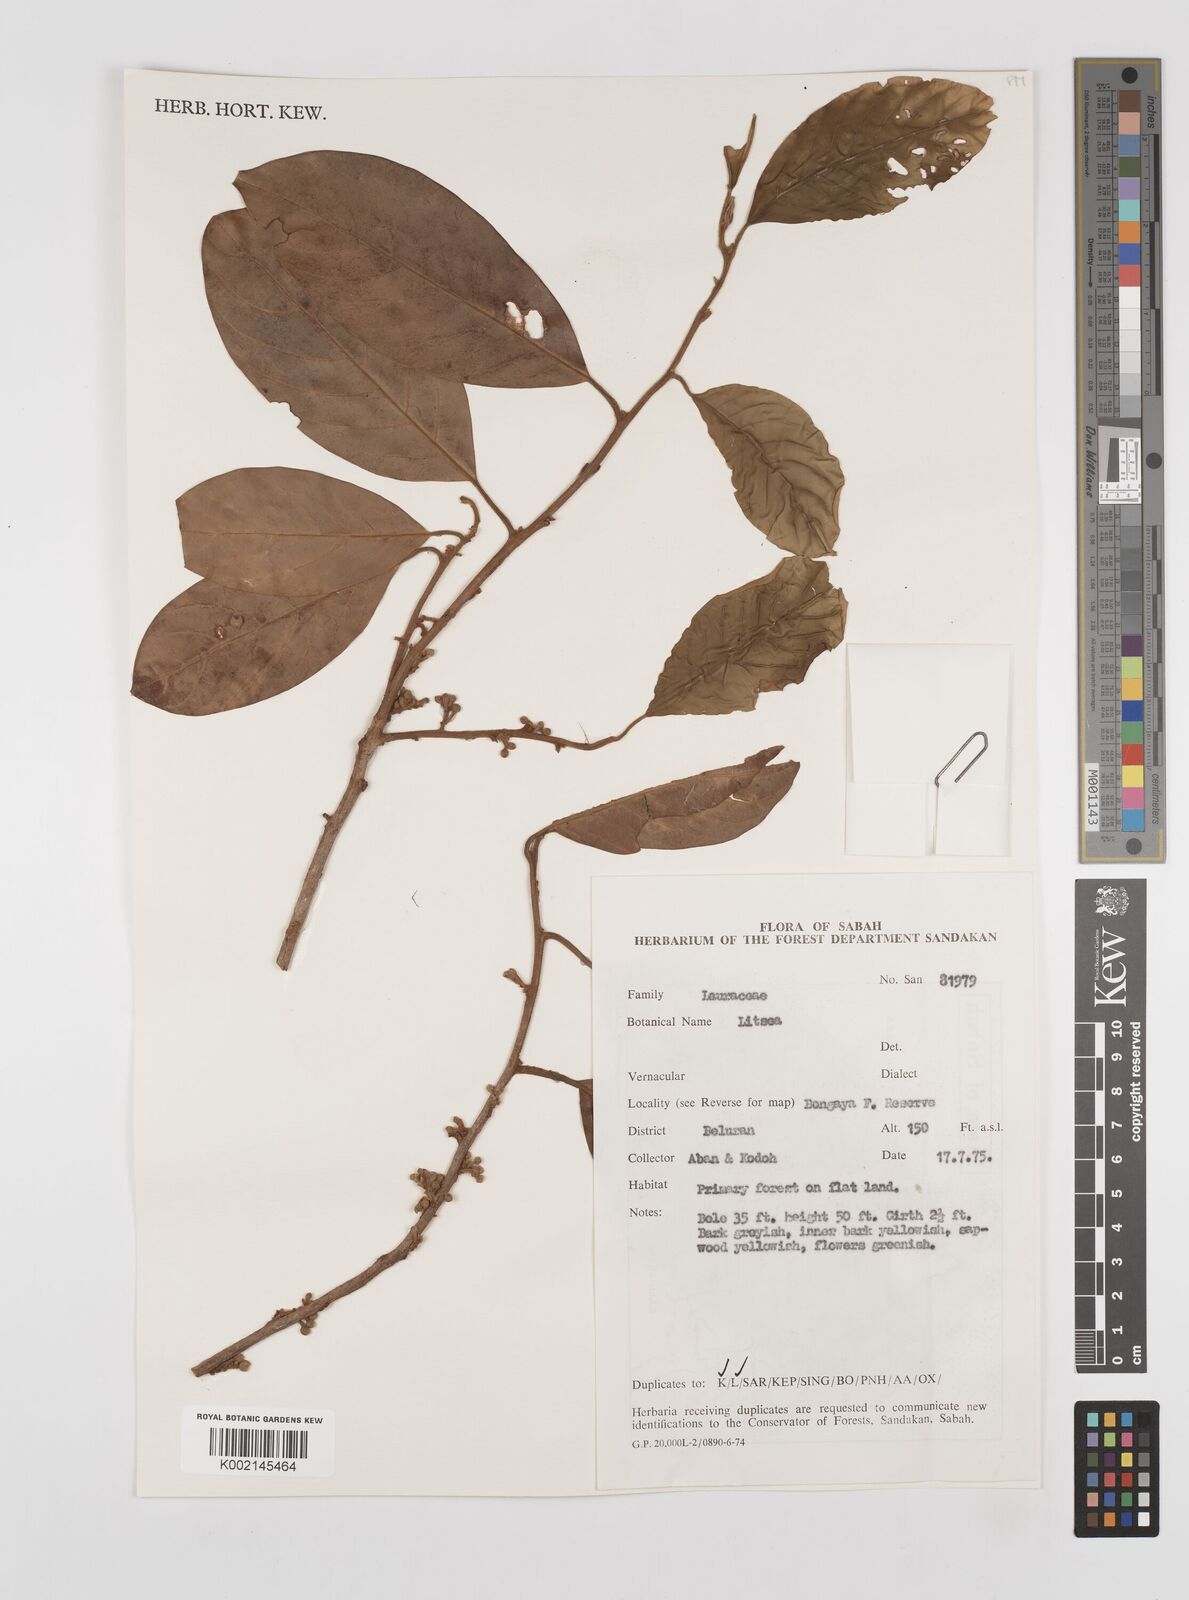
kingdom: Plantae
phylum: Tracheophyta
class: Magnoliopsida
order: Laurales
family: Lauraceae
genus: Litsea
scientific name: Litsea
